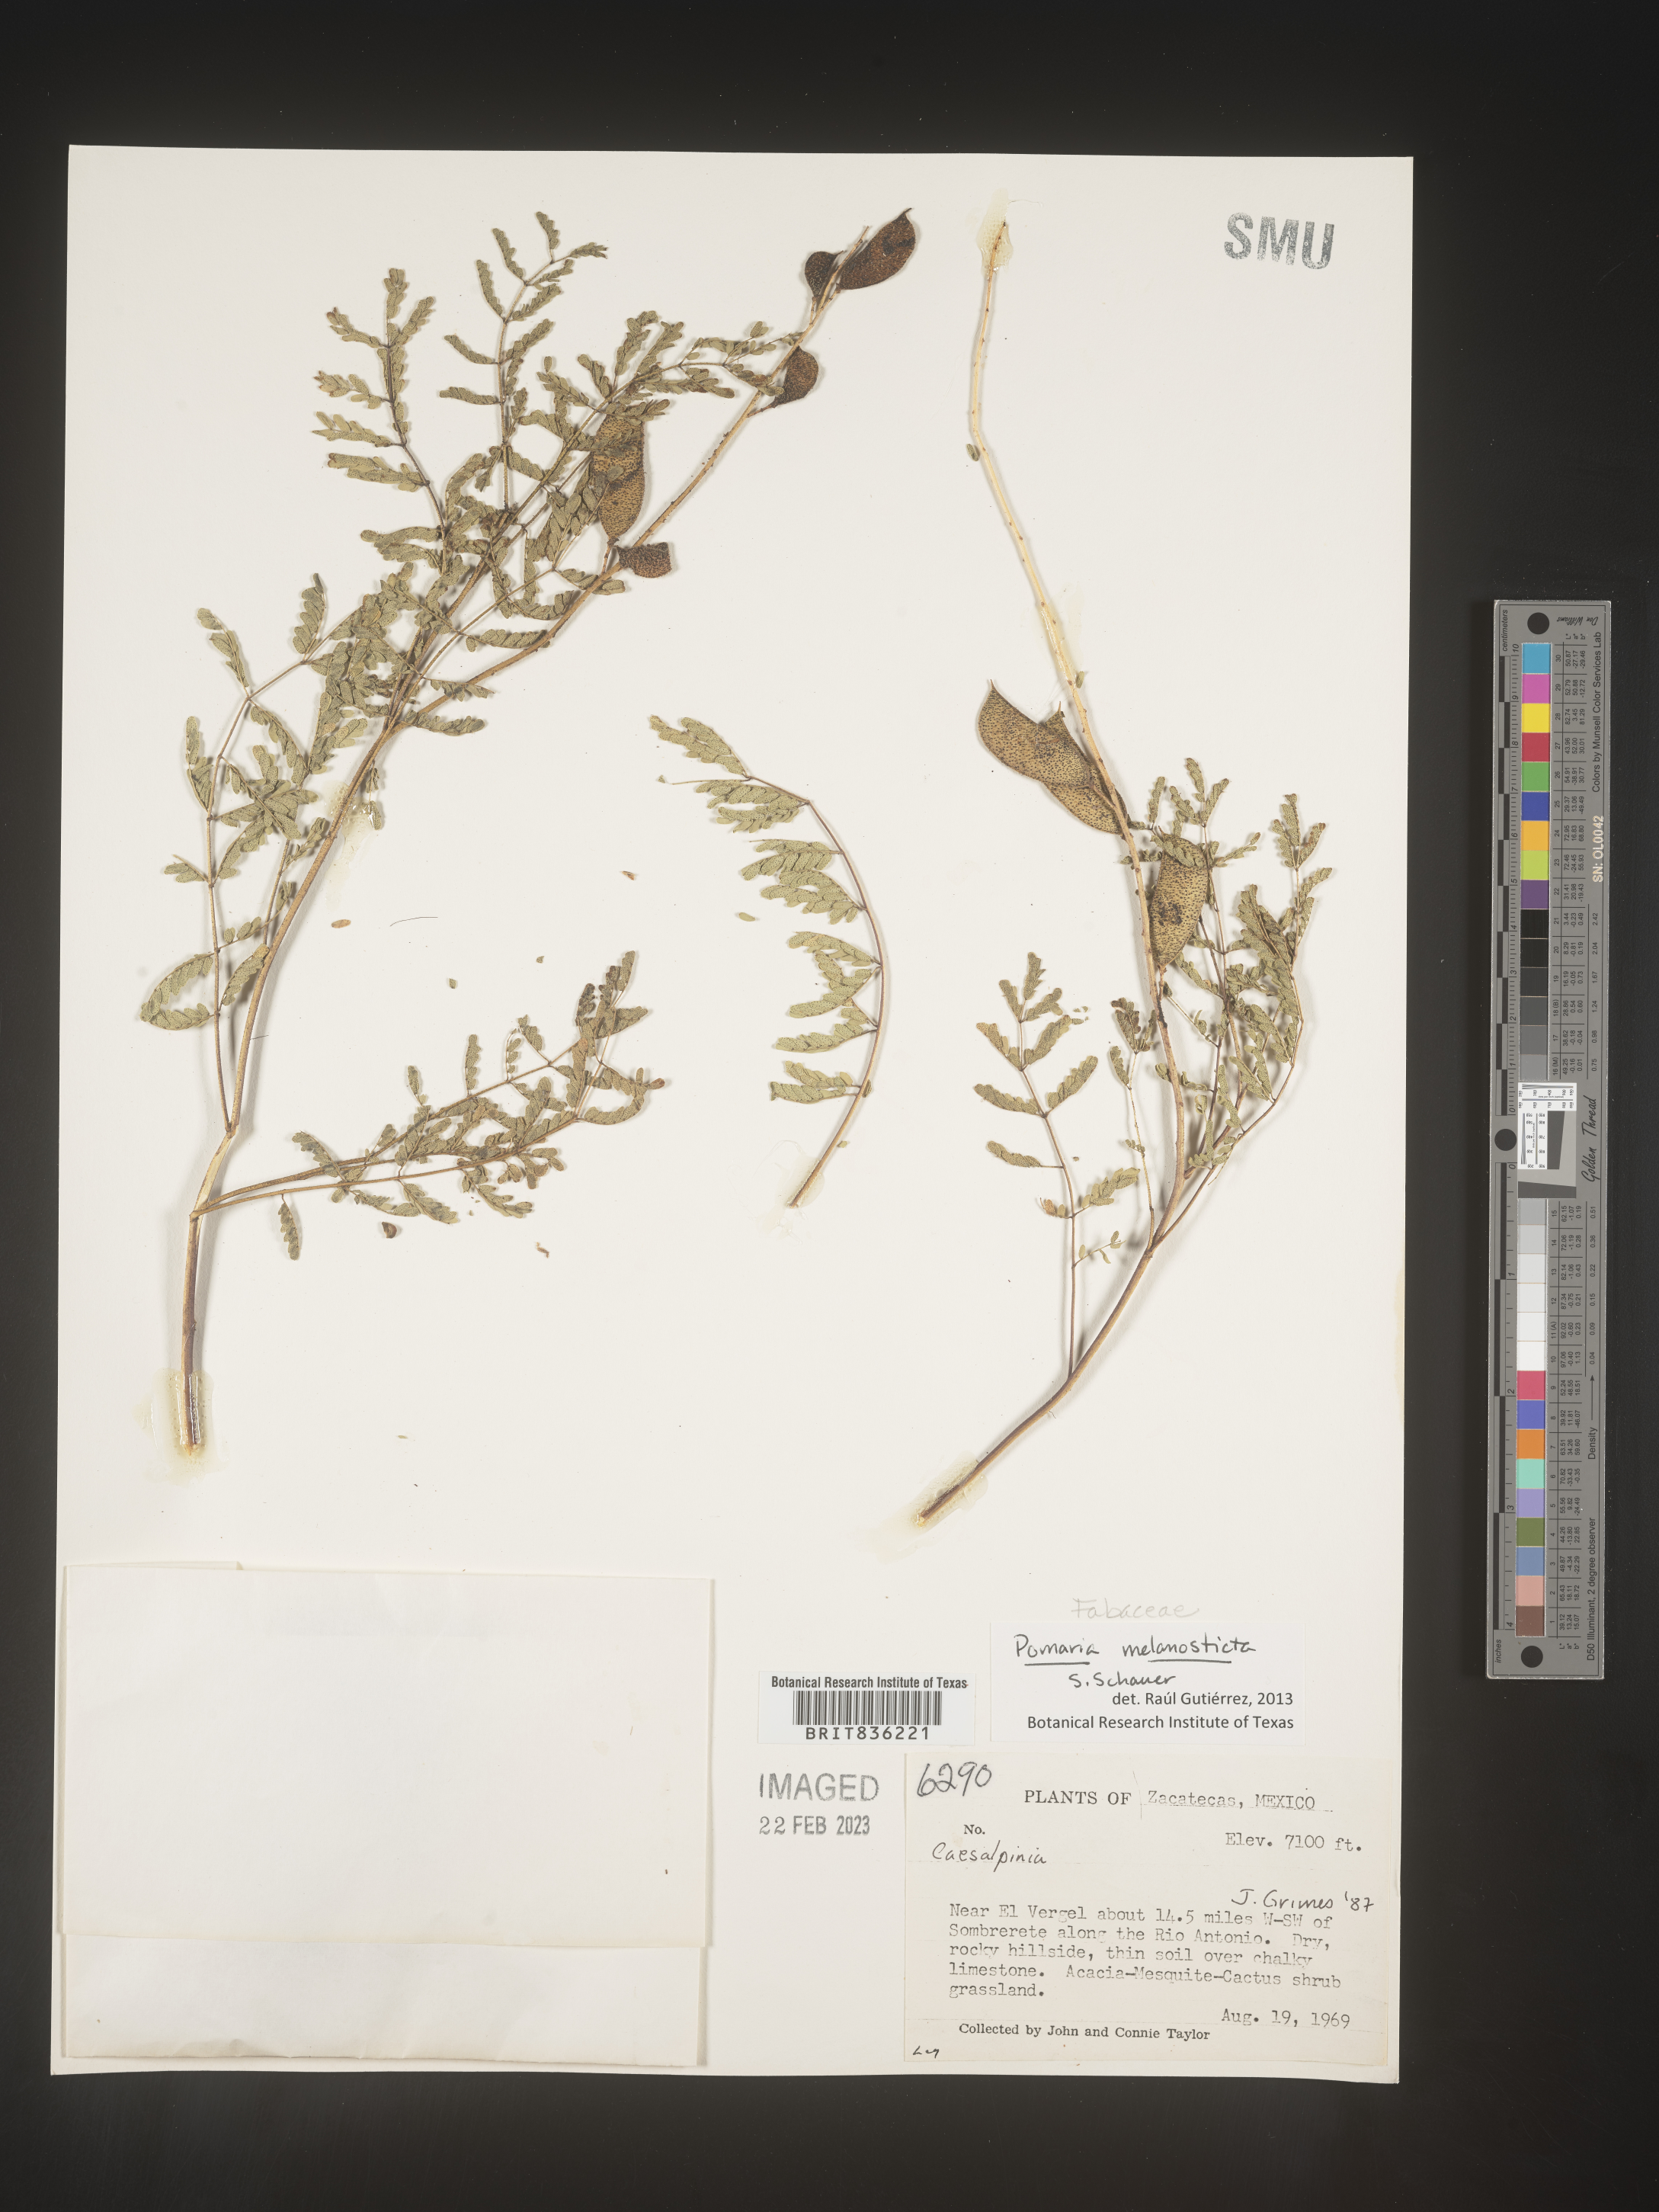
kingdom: Plantae
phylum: Tracheophyta
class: Magnoliopsida
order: Fabales
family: Fabaceae
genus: Pomaria
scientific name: Pomaria melanosticta
